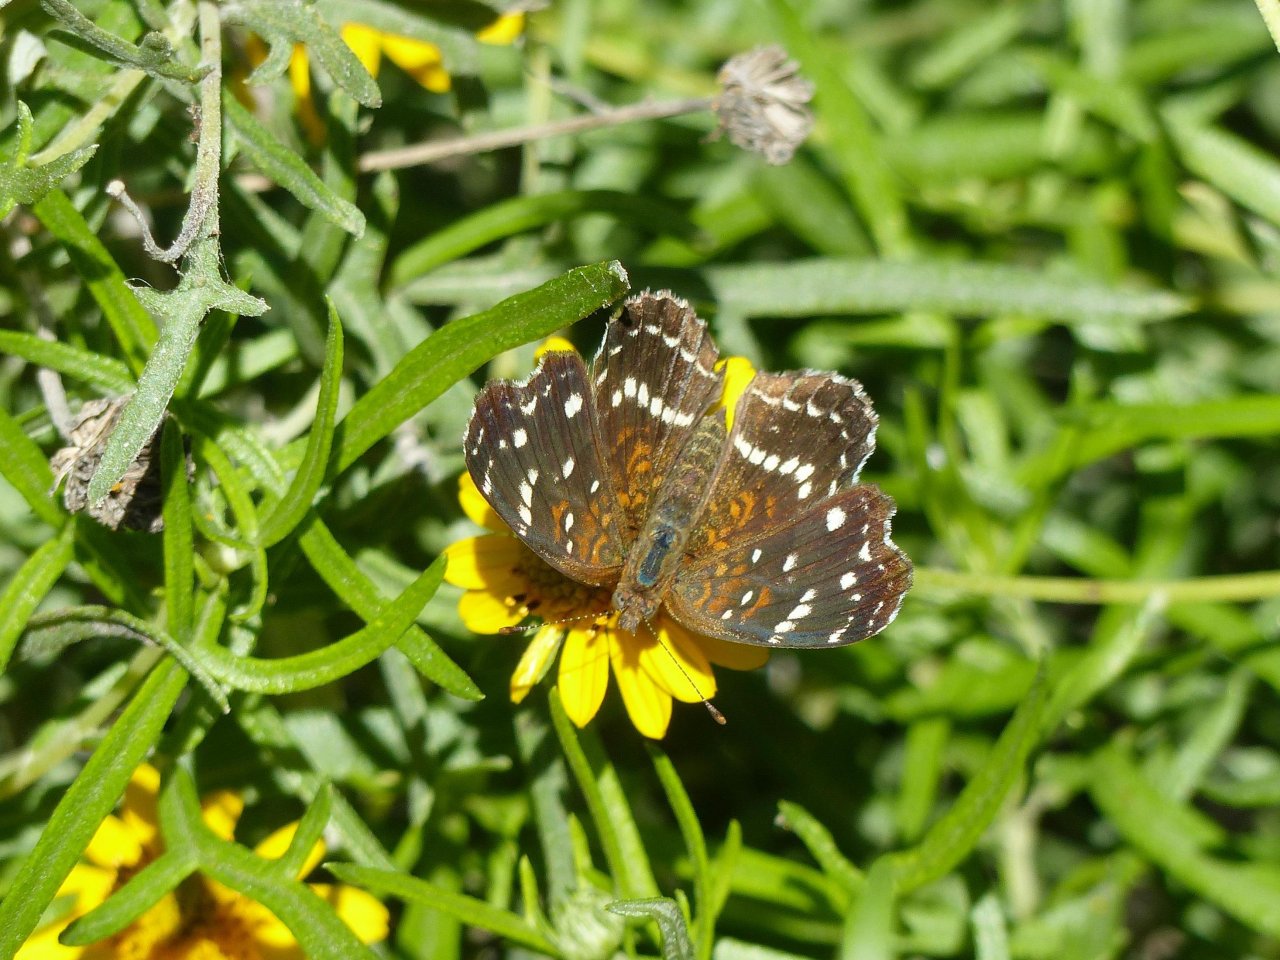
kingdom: Animalia
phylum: Arthropoda
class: Insecta
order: Lepidoptera
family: Nymphalidae
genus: Anthanassa
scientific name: Anthanassa texana
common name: Texan Crescent
